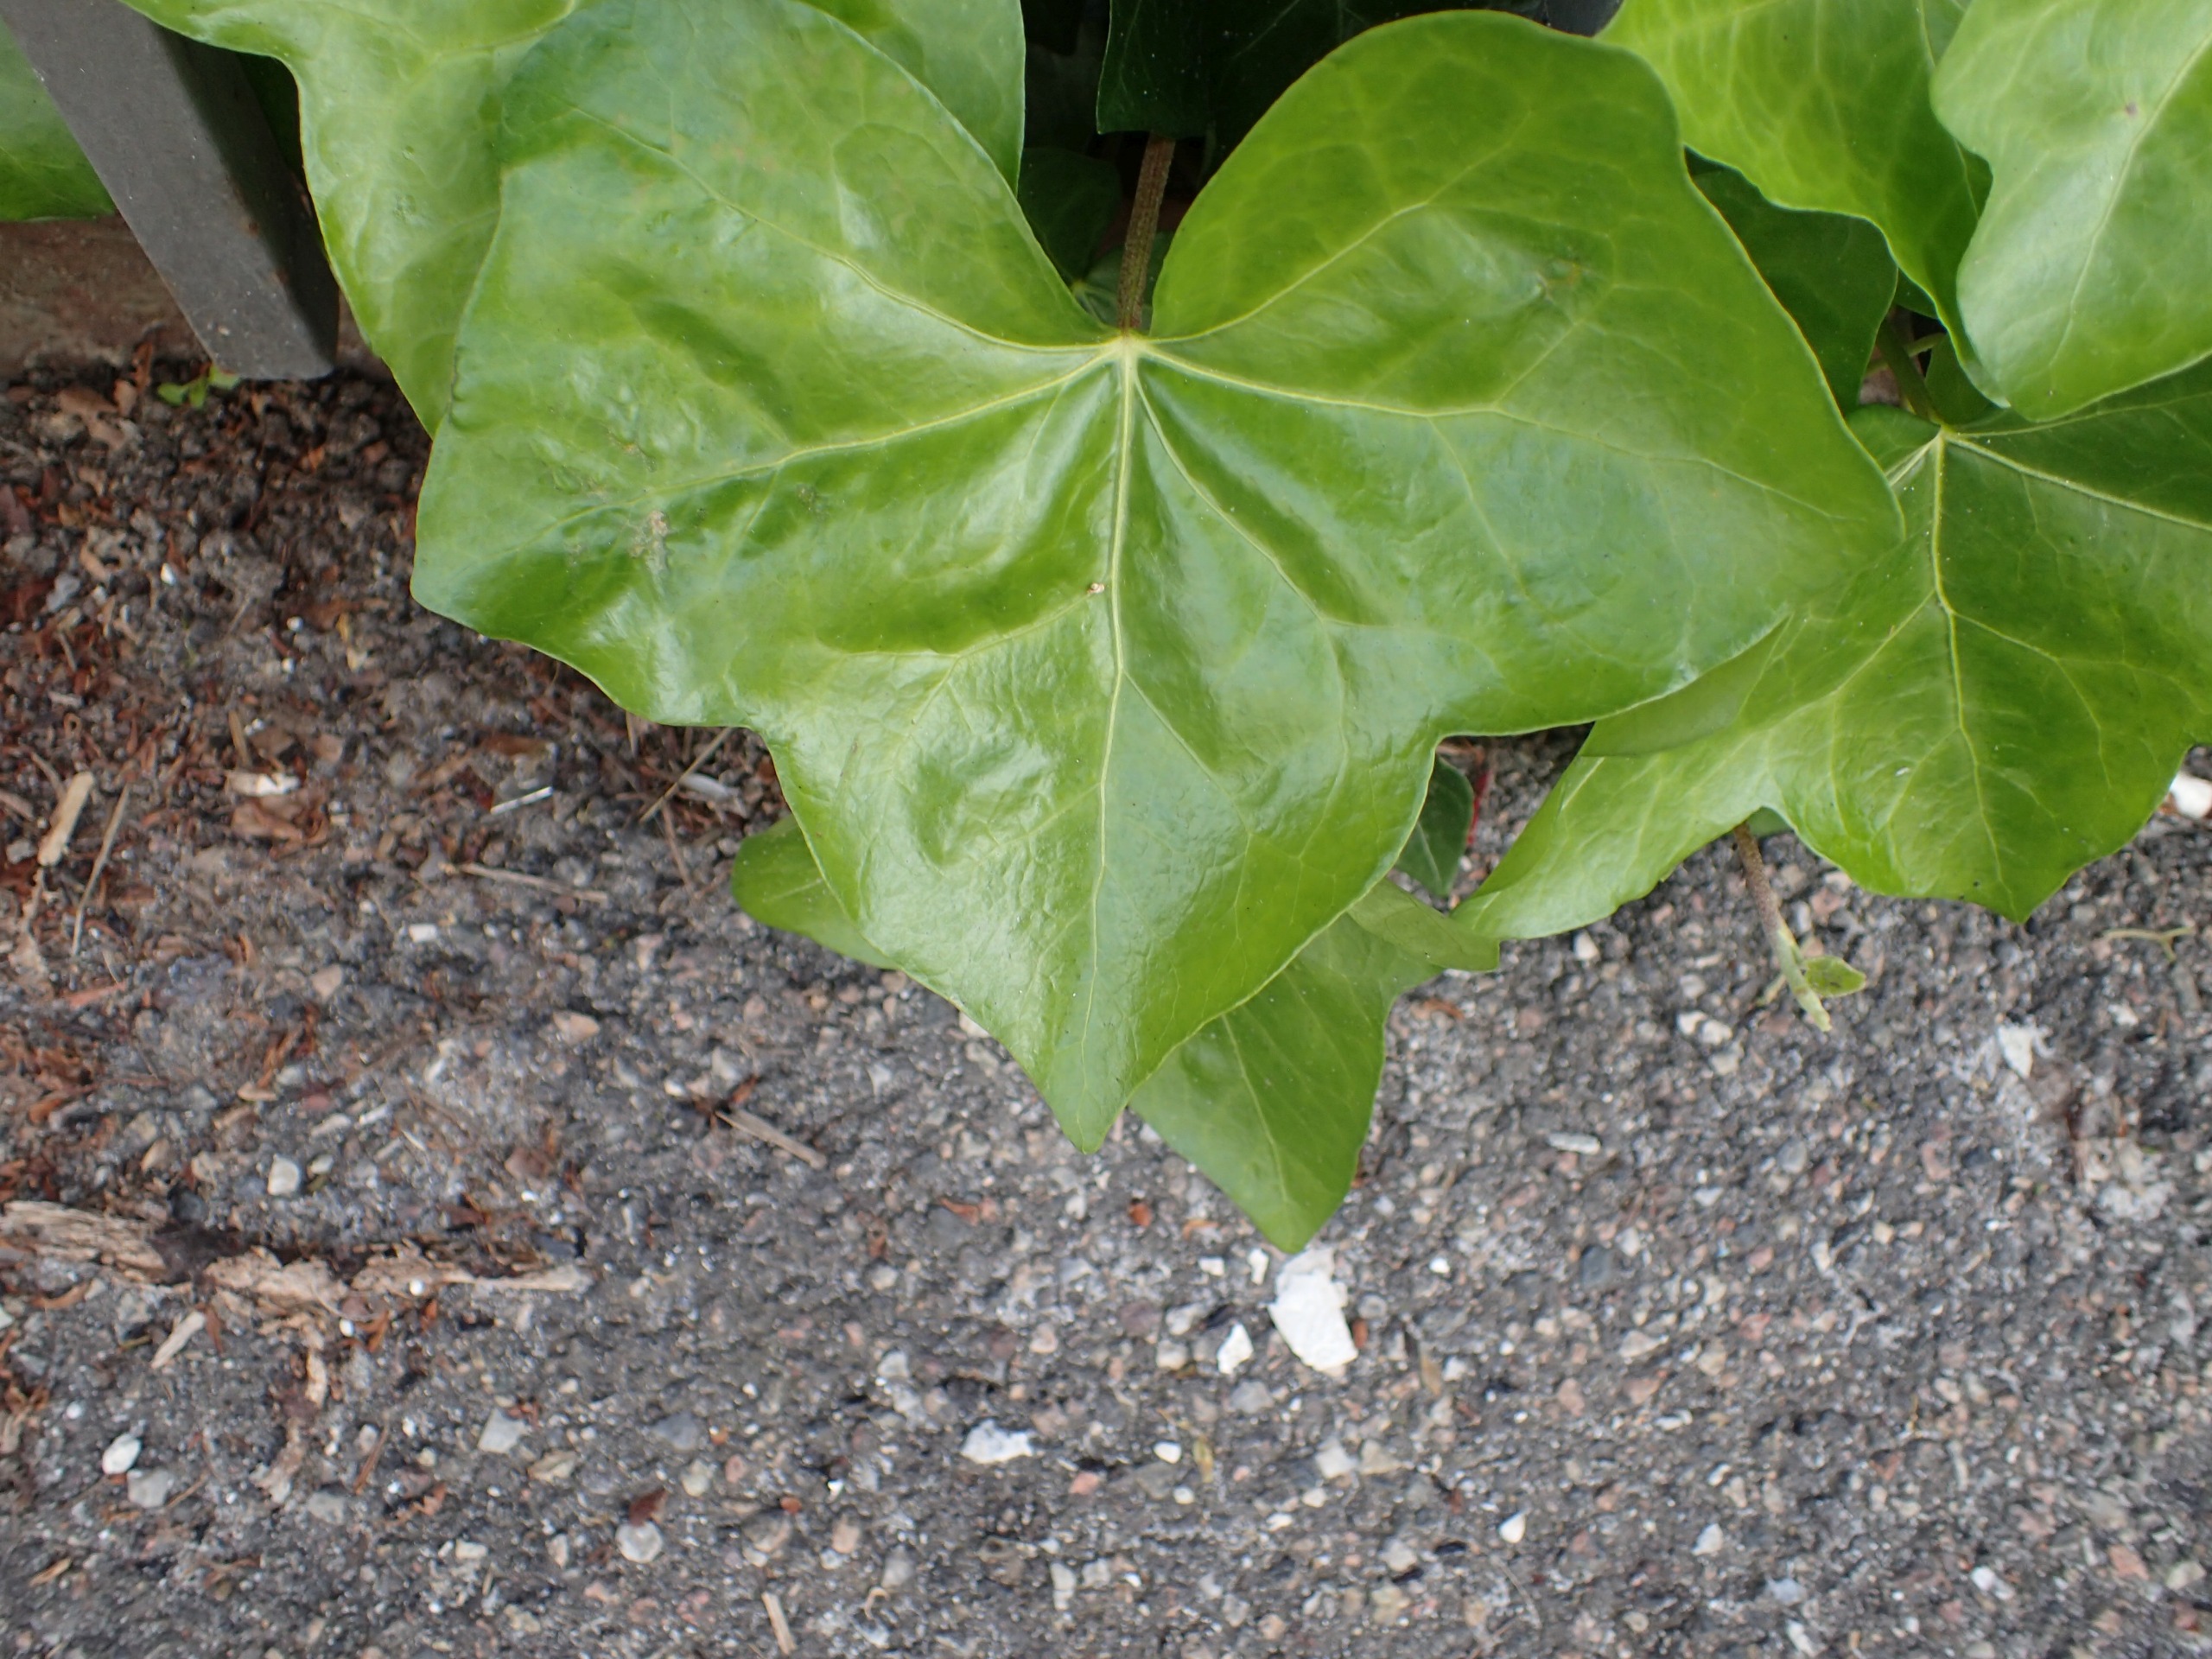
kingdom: Plantae
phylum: Tracheophyta
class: Magnoliopsida
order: Apiales
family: Araliaceae
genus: Hedera
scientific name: Hedera hibernica
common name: Irsk vedbend
